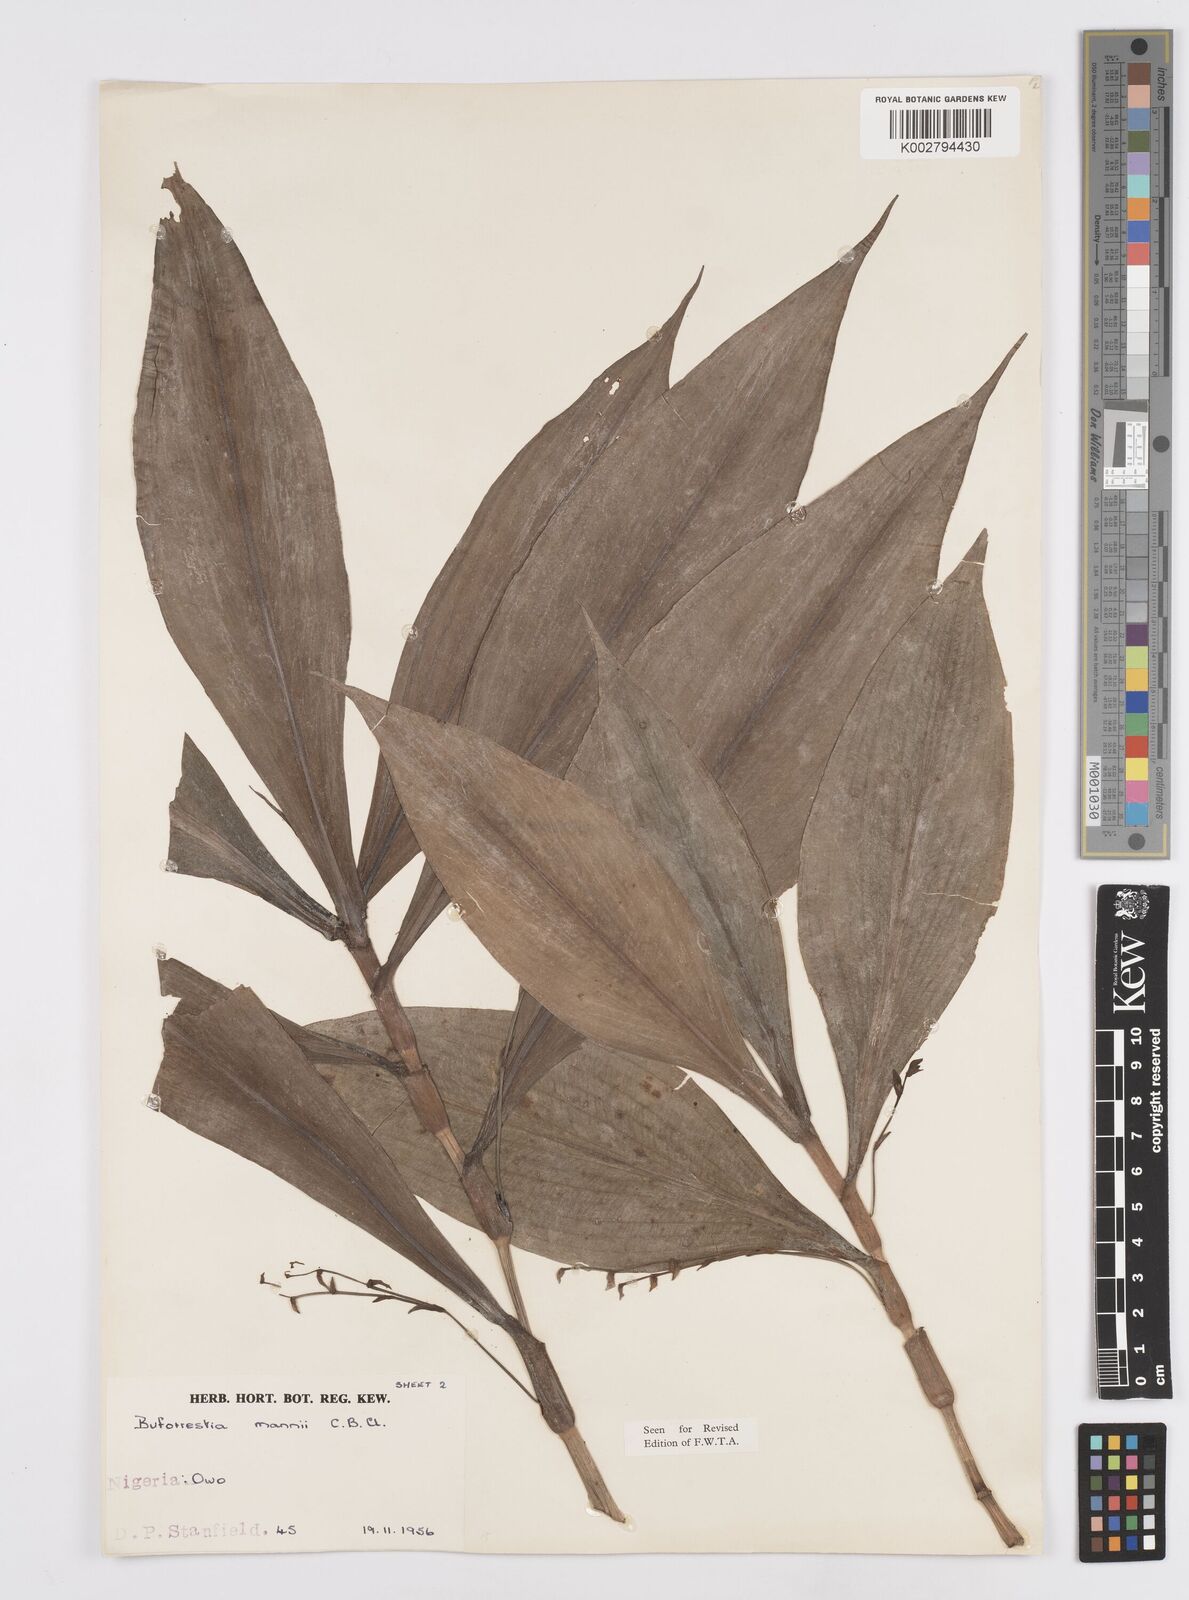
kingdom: Plantae
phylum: Tracheophyta
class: Liliopsida
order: Commelinales
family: Commelinaceae
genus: Buforrestia
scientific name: Buforrestia mannii
